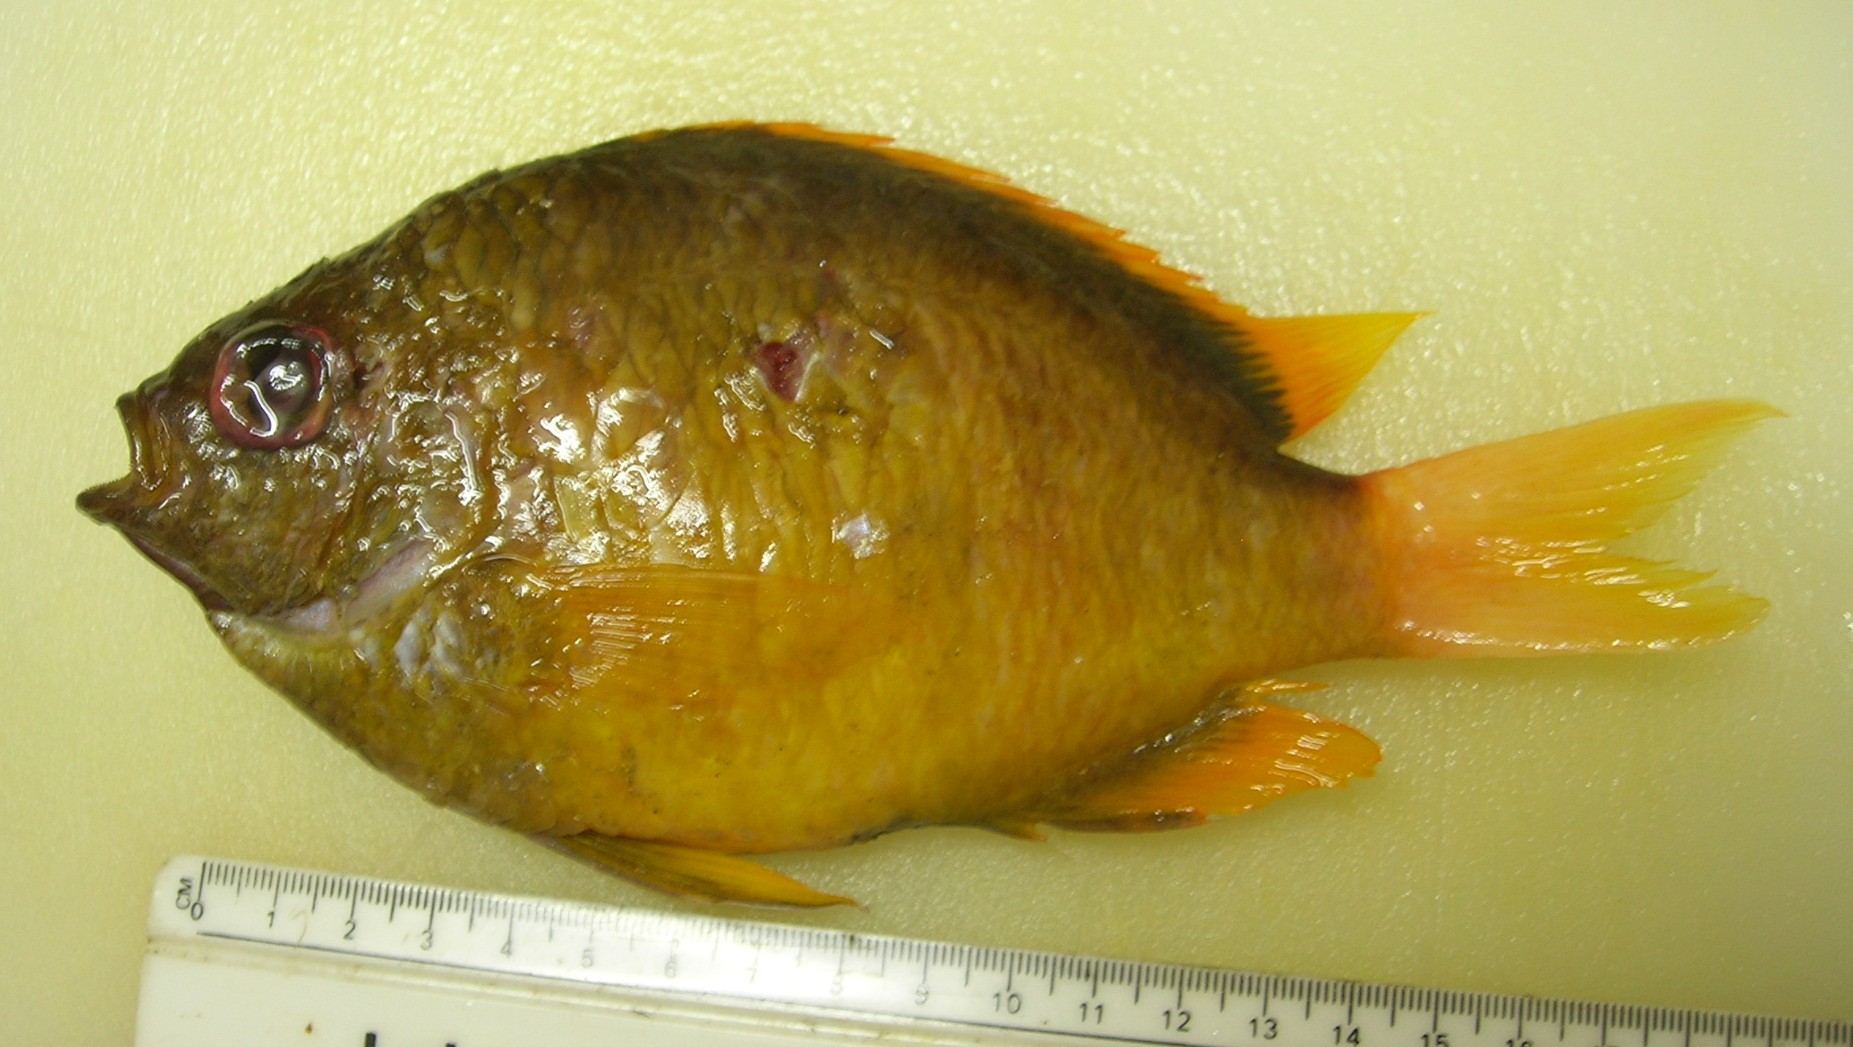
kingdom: Animalia
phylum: Chordata
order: Perciformes
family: Pomacentridae
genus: Chromis
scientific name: Chromis agilis
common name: Bronze reef chromis
